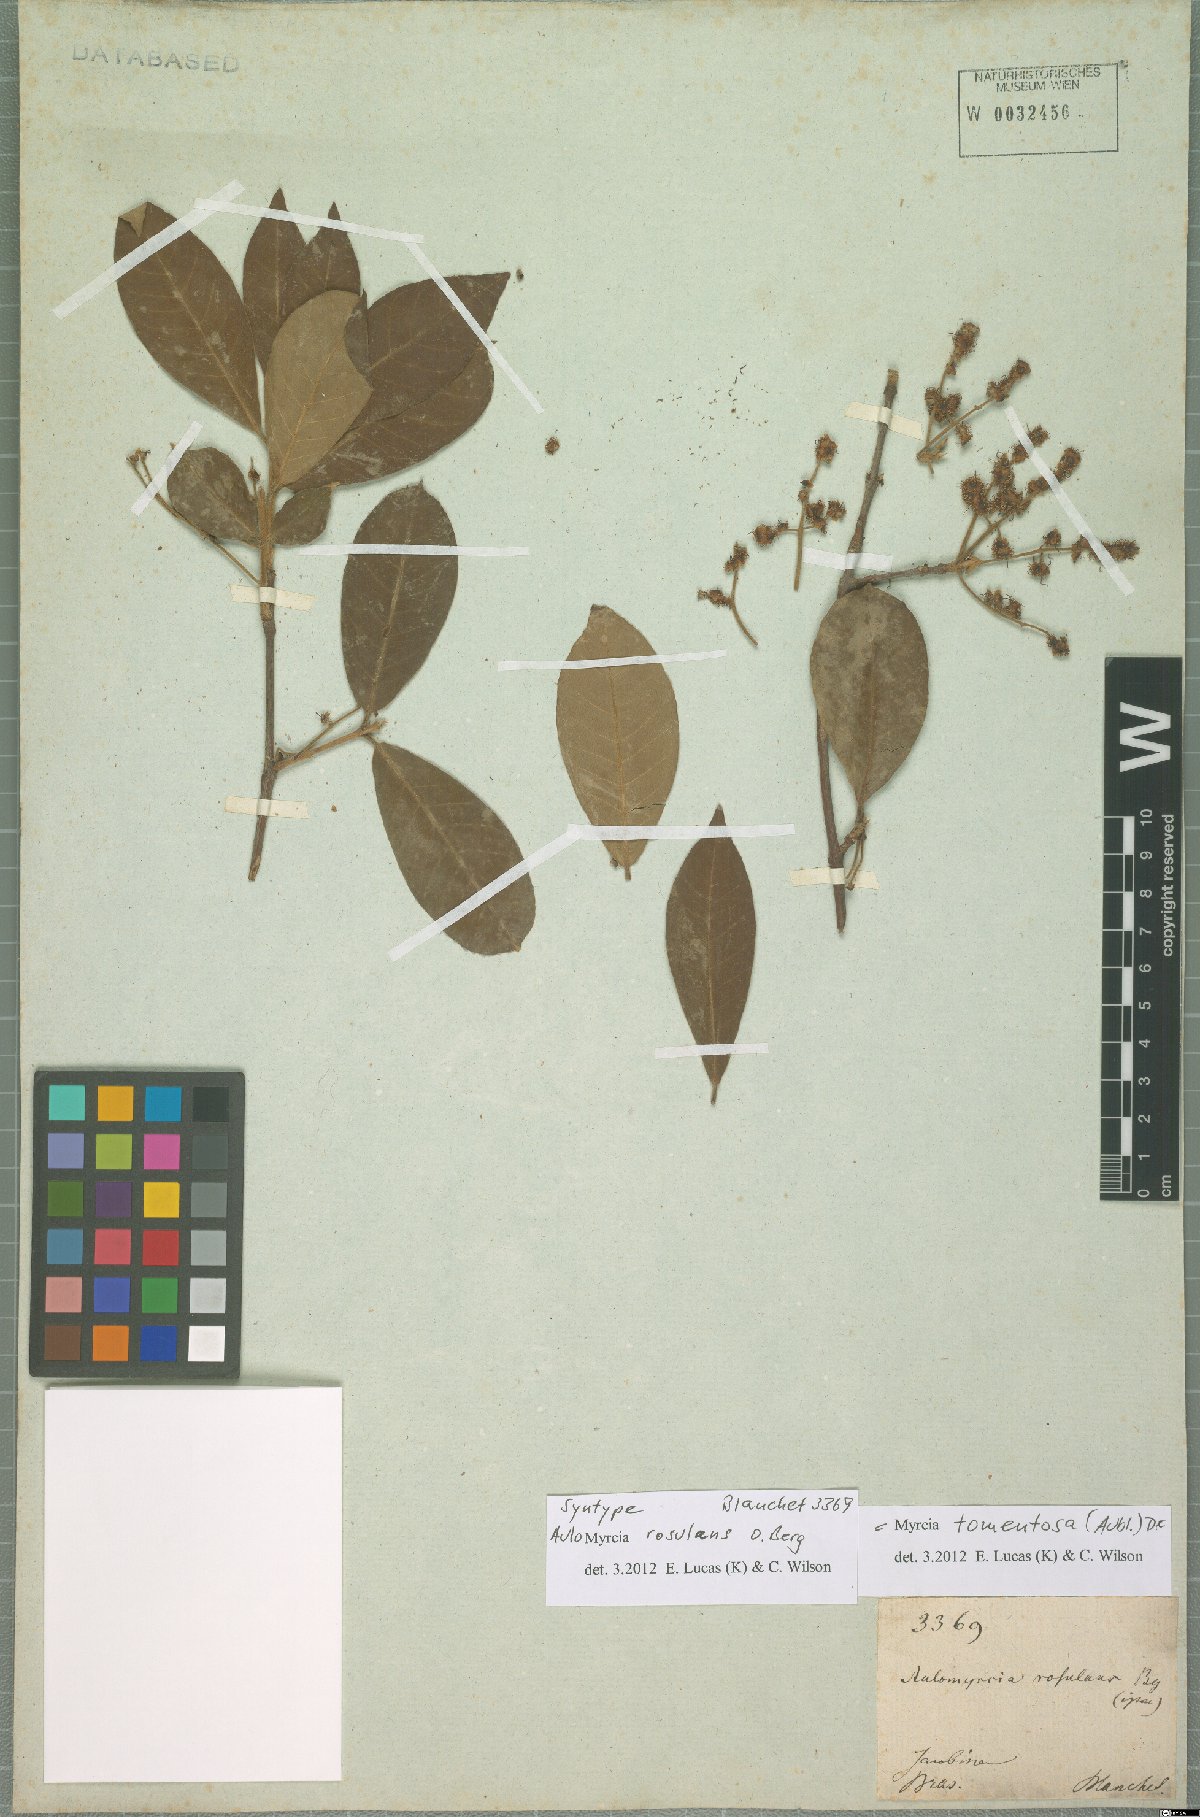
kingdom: Plantae
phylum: Tracheophyta
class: Magnoliopsida
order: Myrtales
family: Myrtaceae
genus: Myrcia
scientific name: Myrcia tomentosa
